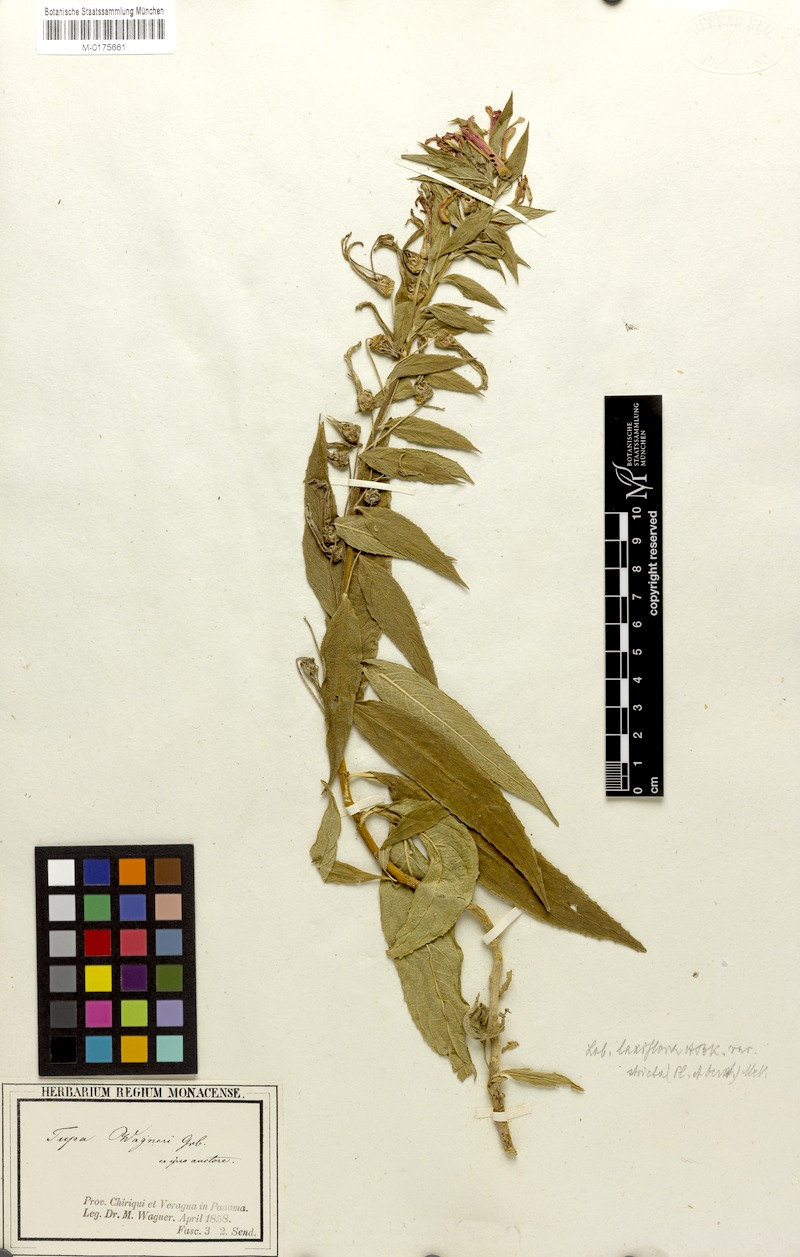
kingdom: Plantae
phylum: Tracheophyta
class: Magnoliopsida
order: Asterales
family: Campanulaceae
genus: Lobelia
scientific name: Lobelia laxiflora
